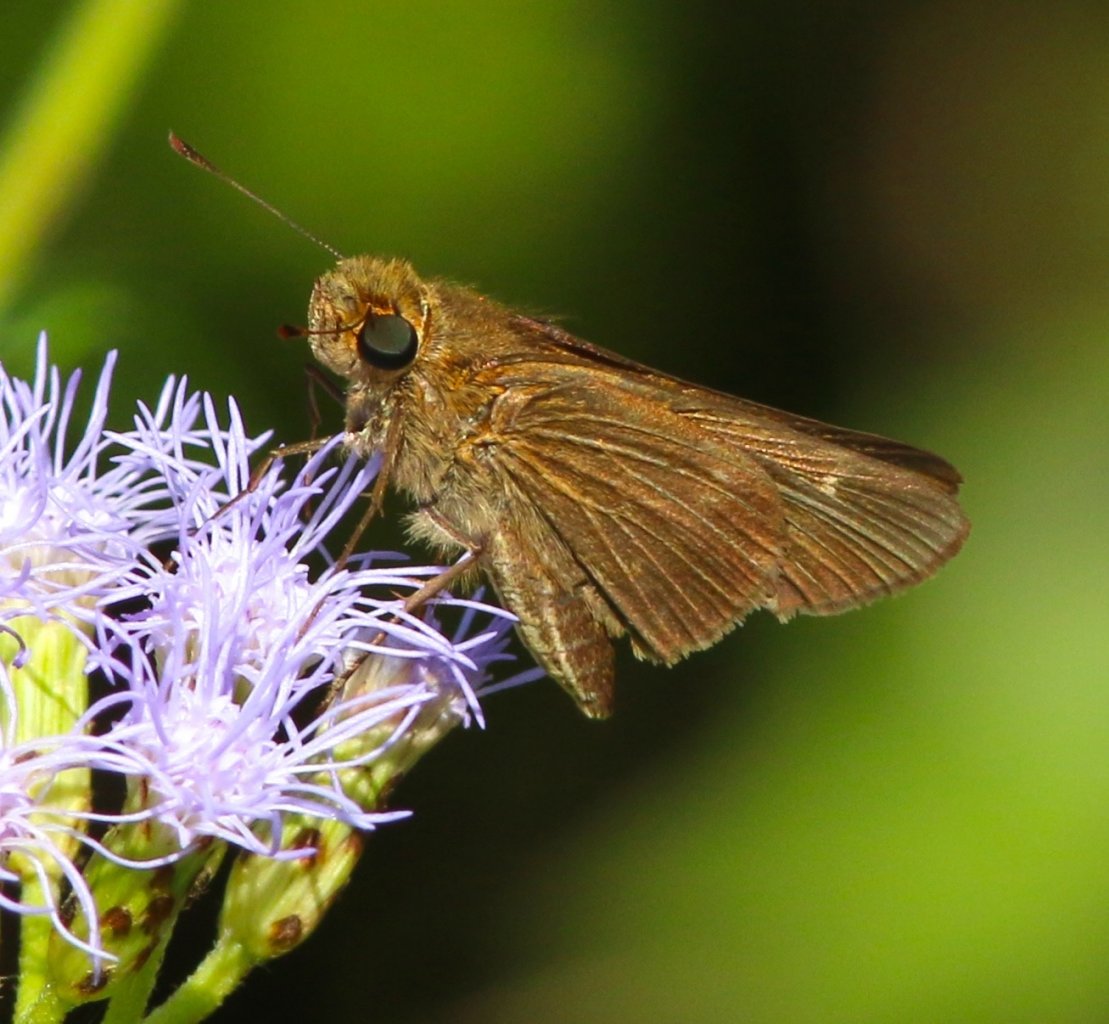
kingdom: Animalia
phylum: Arthropoda
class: Insecta
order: Lepidoptera
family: Hesperiidae
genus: Panoquina
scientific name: Panoquina ocola
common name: Ocola Skipper
